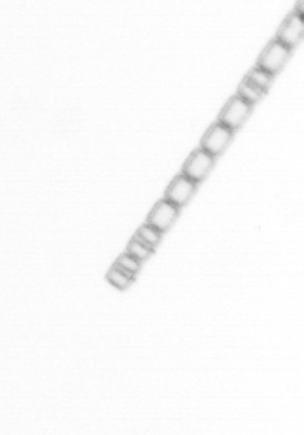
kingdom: Chromista
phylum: Ochrophyta
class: Bacillariophyceae
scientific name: Bacillariophyceae
